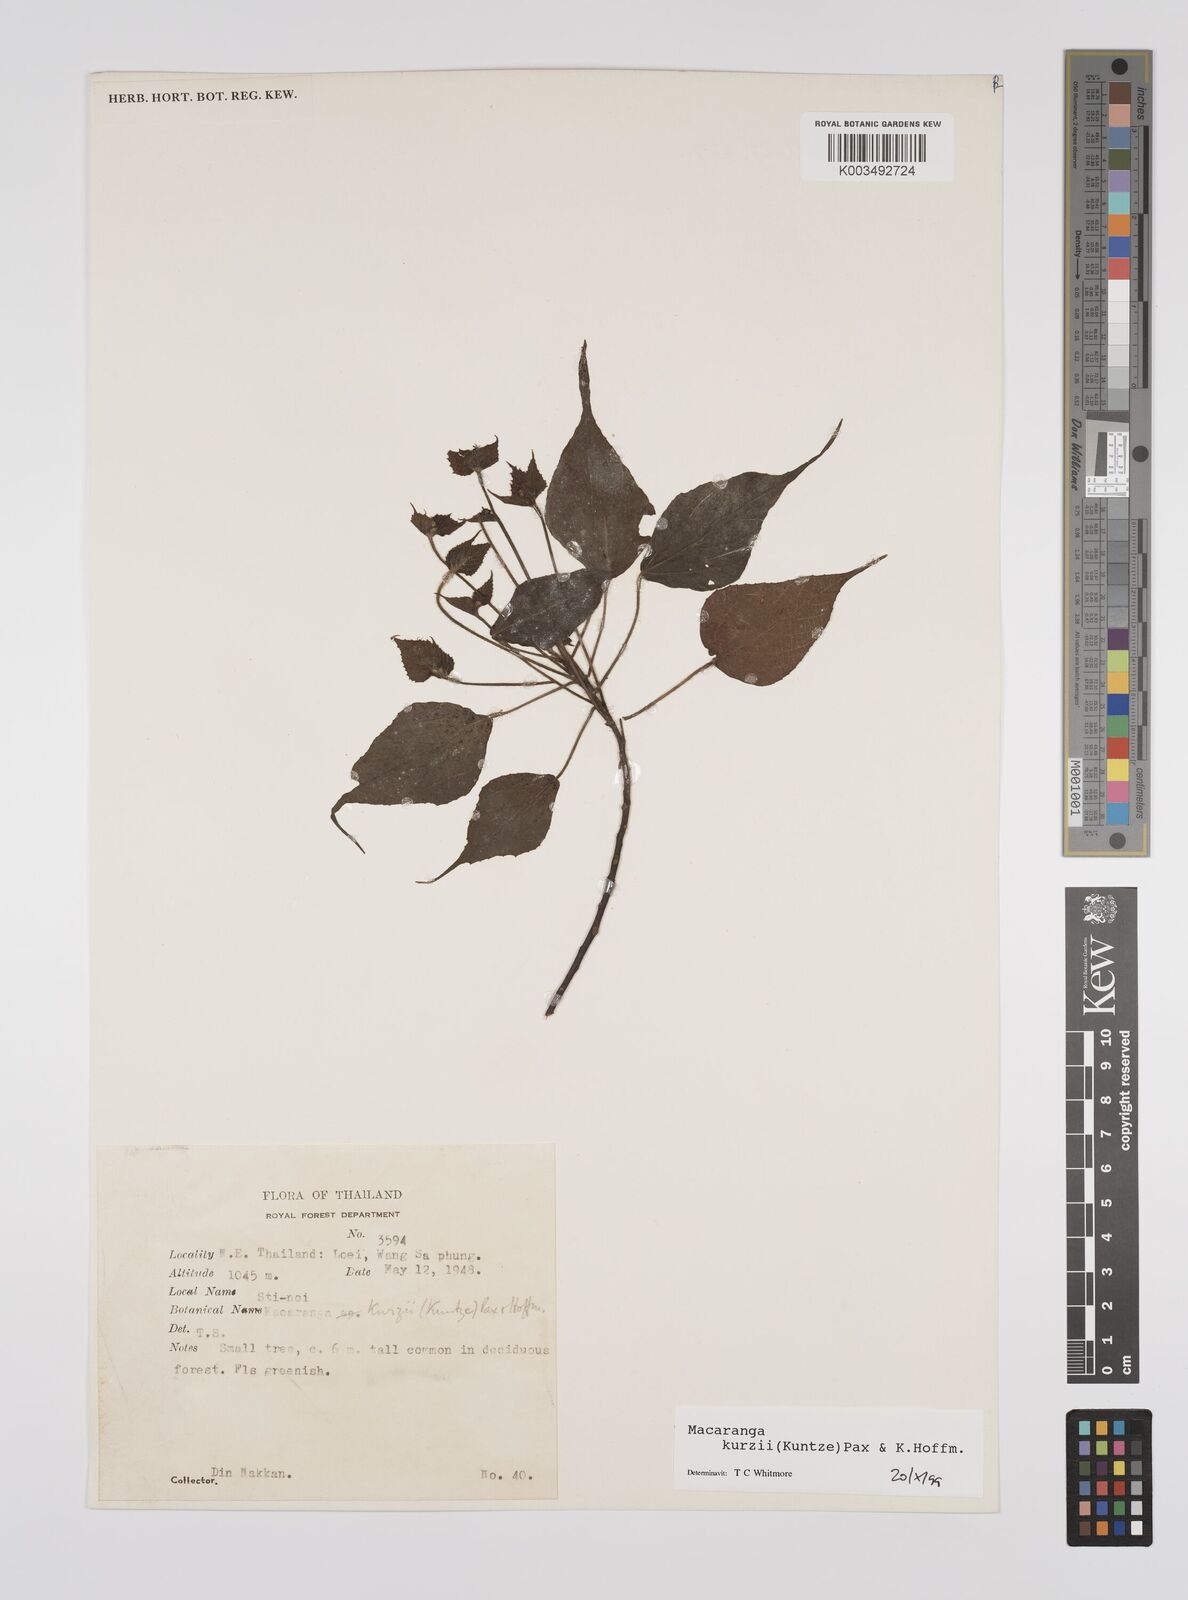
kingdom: Plantae
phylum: Tracheophyta
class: Magnoliopsida
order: Malpighiales
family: Euphorbiaceae
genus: Macaranga
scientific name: Macaranga kurzii
